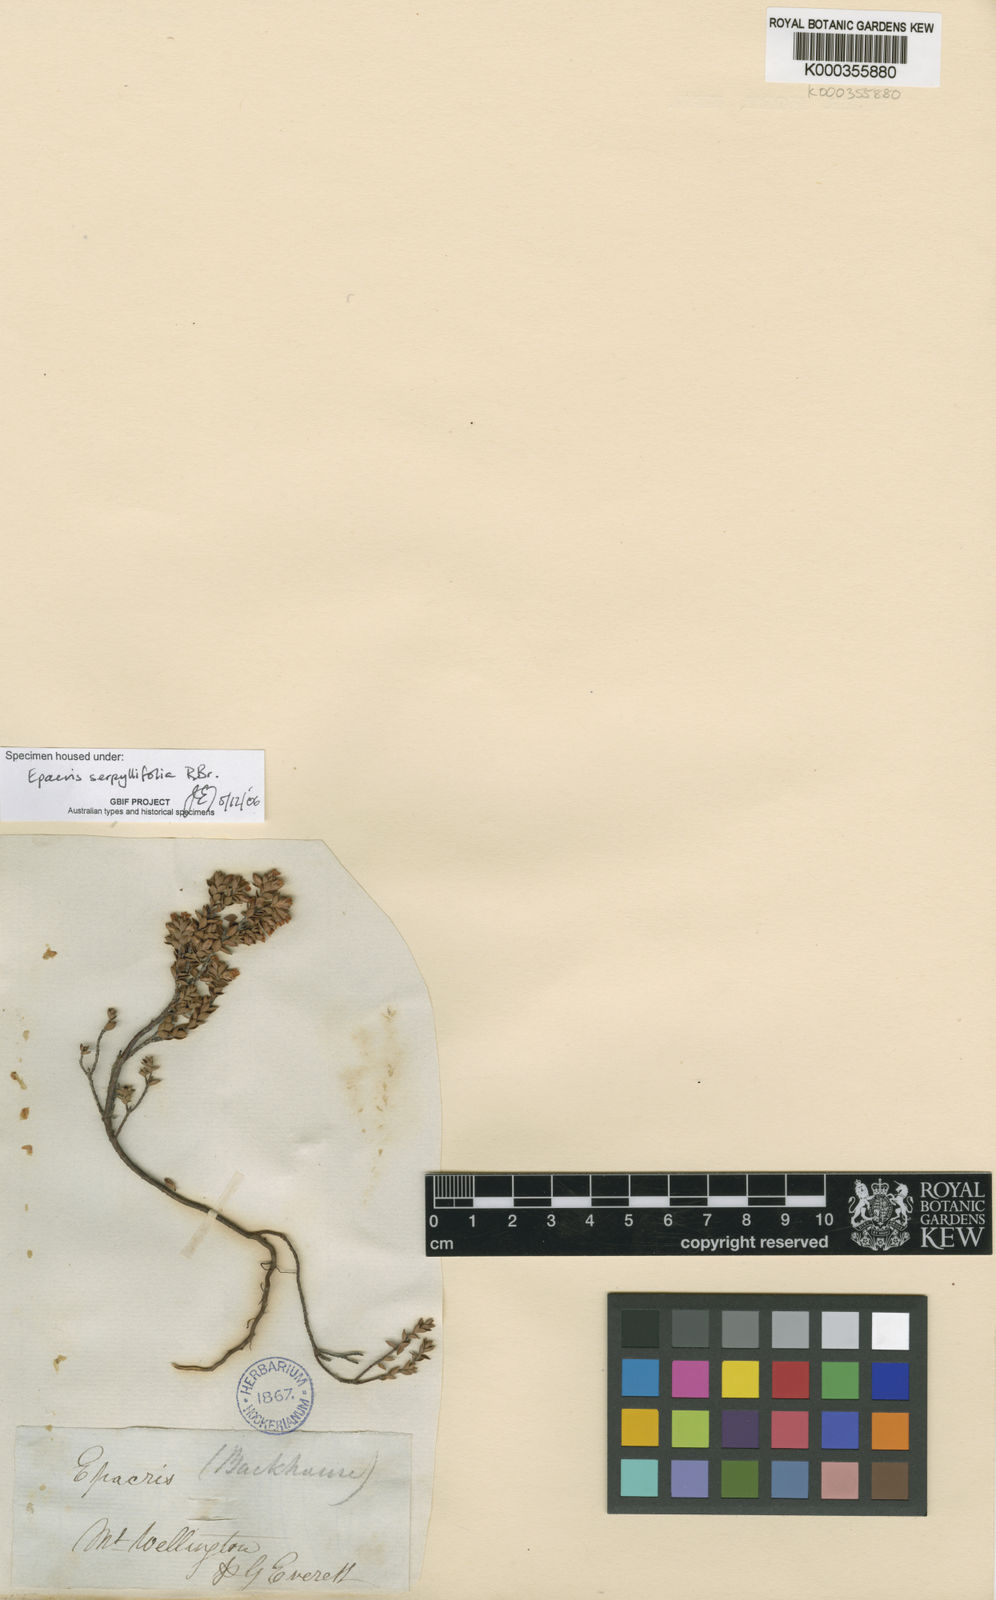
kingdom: Plantae
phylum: Tracheophyta
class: Magnoliopsida
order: Ericales
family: Ericaceae
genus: Epacris
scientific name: Epacris serpyllifolia
